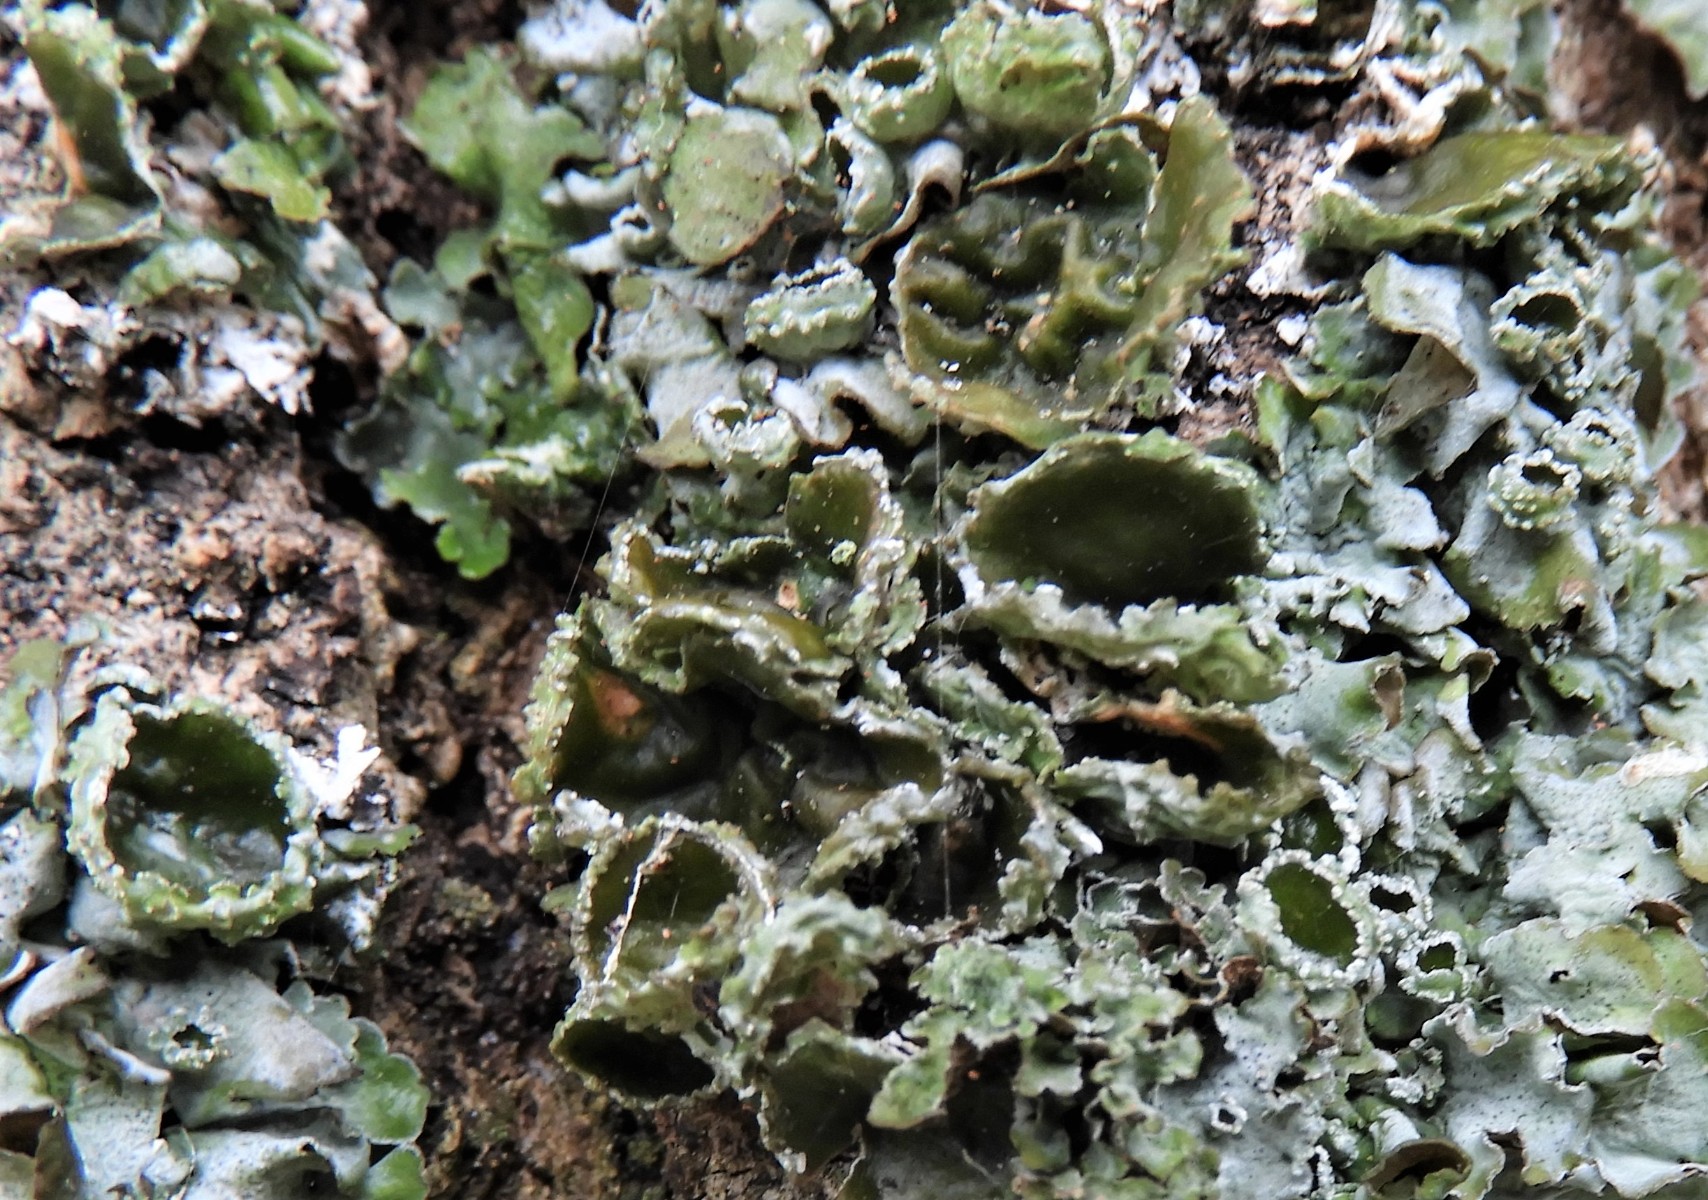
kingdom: Fungi
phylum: Ascomycota
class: Lecanoromycetes
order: Lecanorales
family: Parmeliaceae
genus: Pleurosticta
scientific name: Pleurosticta acetabulum
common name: stor skållav
